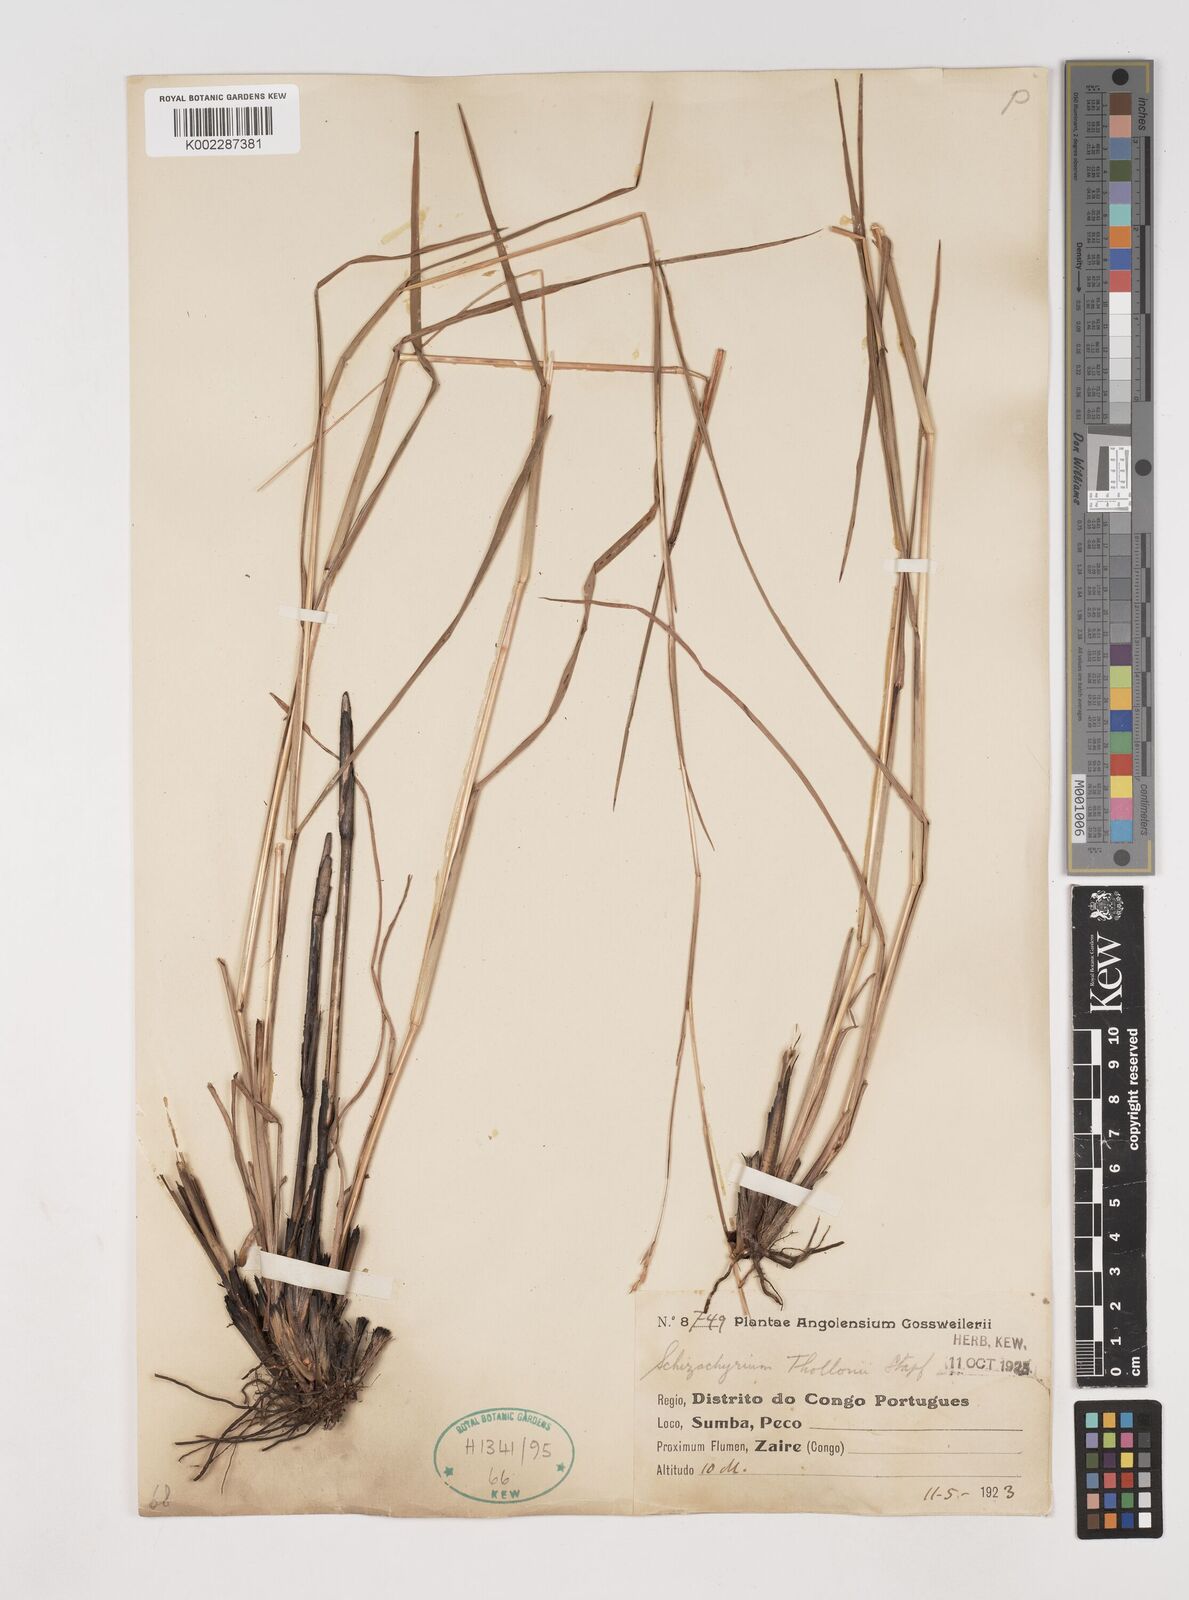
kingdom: Plantae
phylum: Tracheophyta
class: Liliopsida
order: Poales
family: Poaceae
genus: Schizachyrium
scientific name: Schizachyrium thollonii
